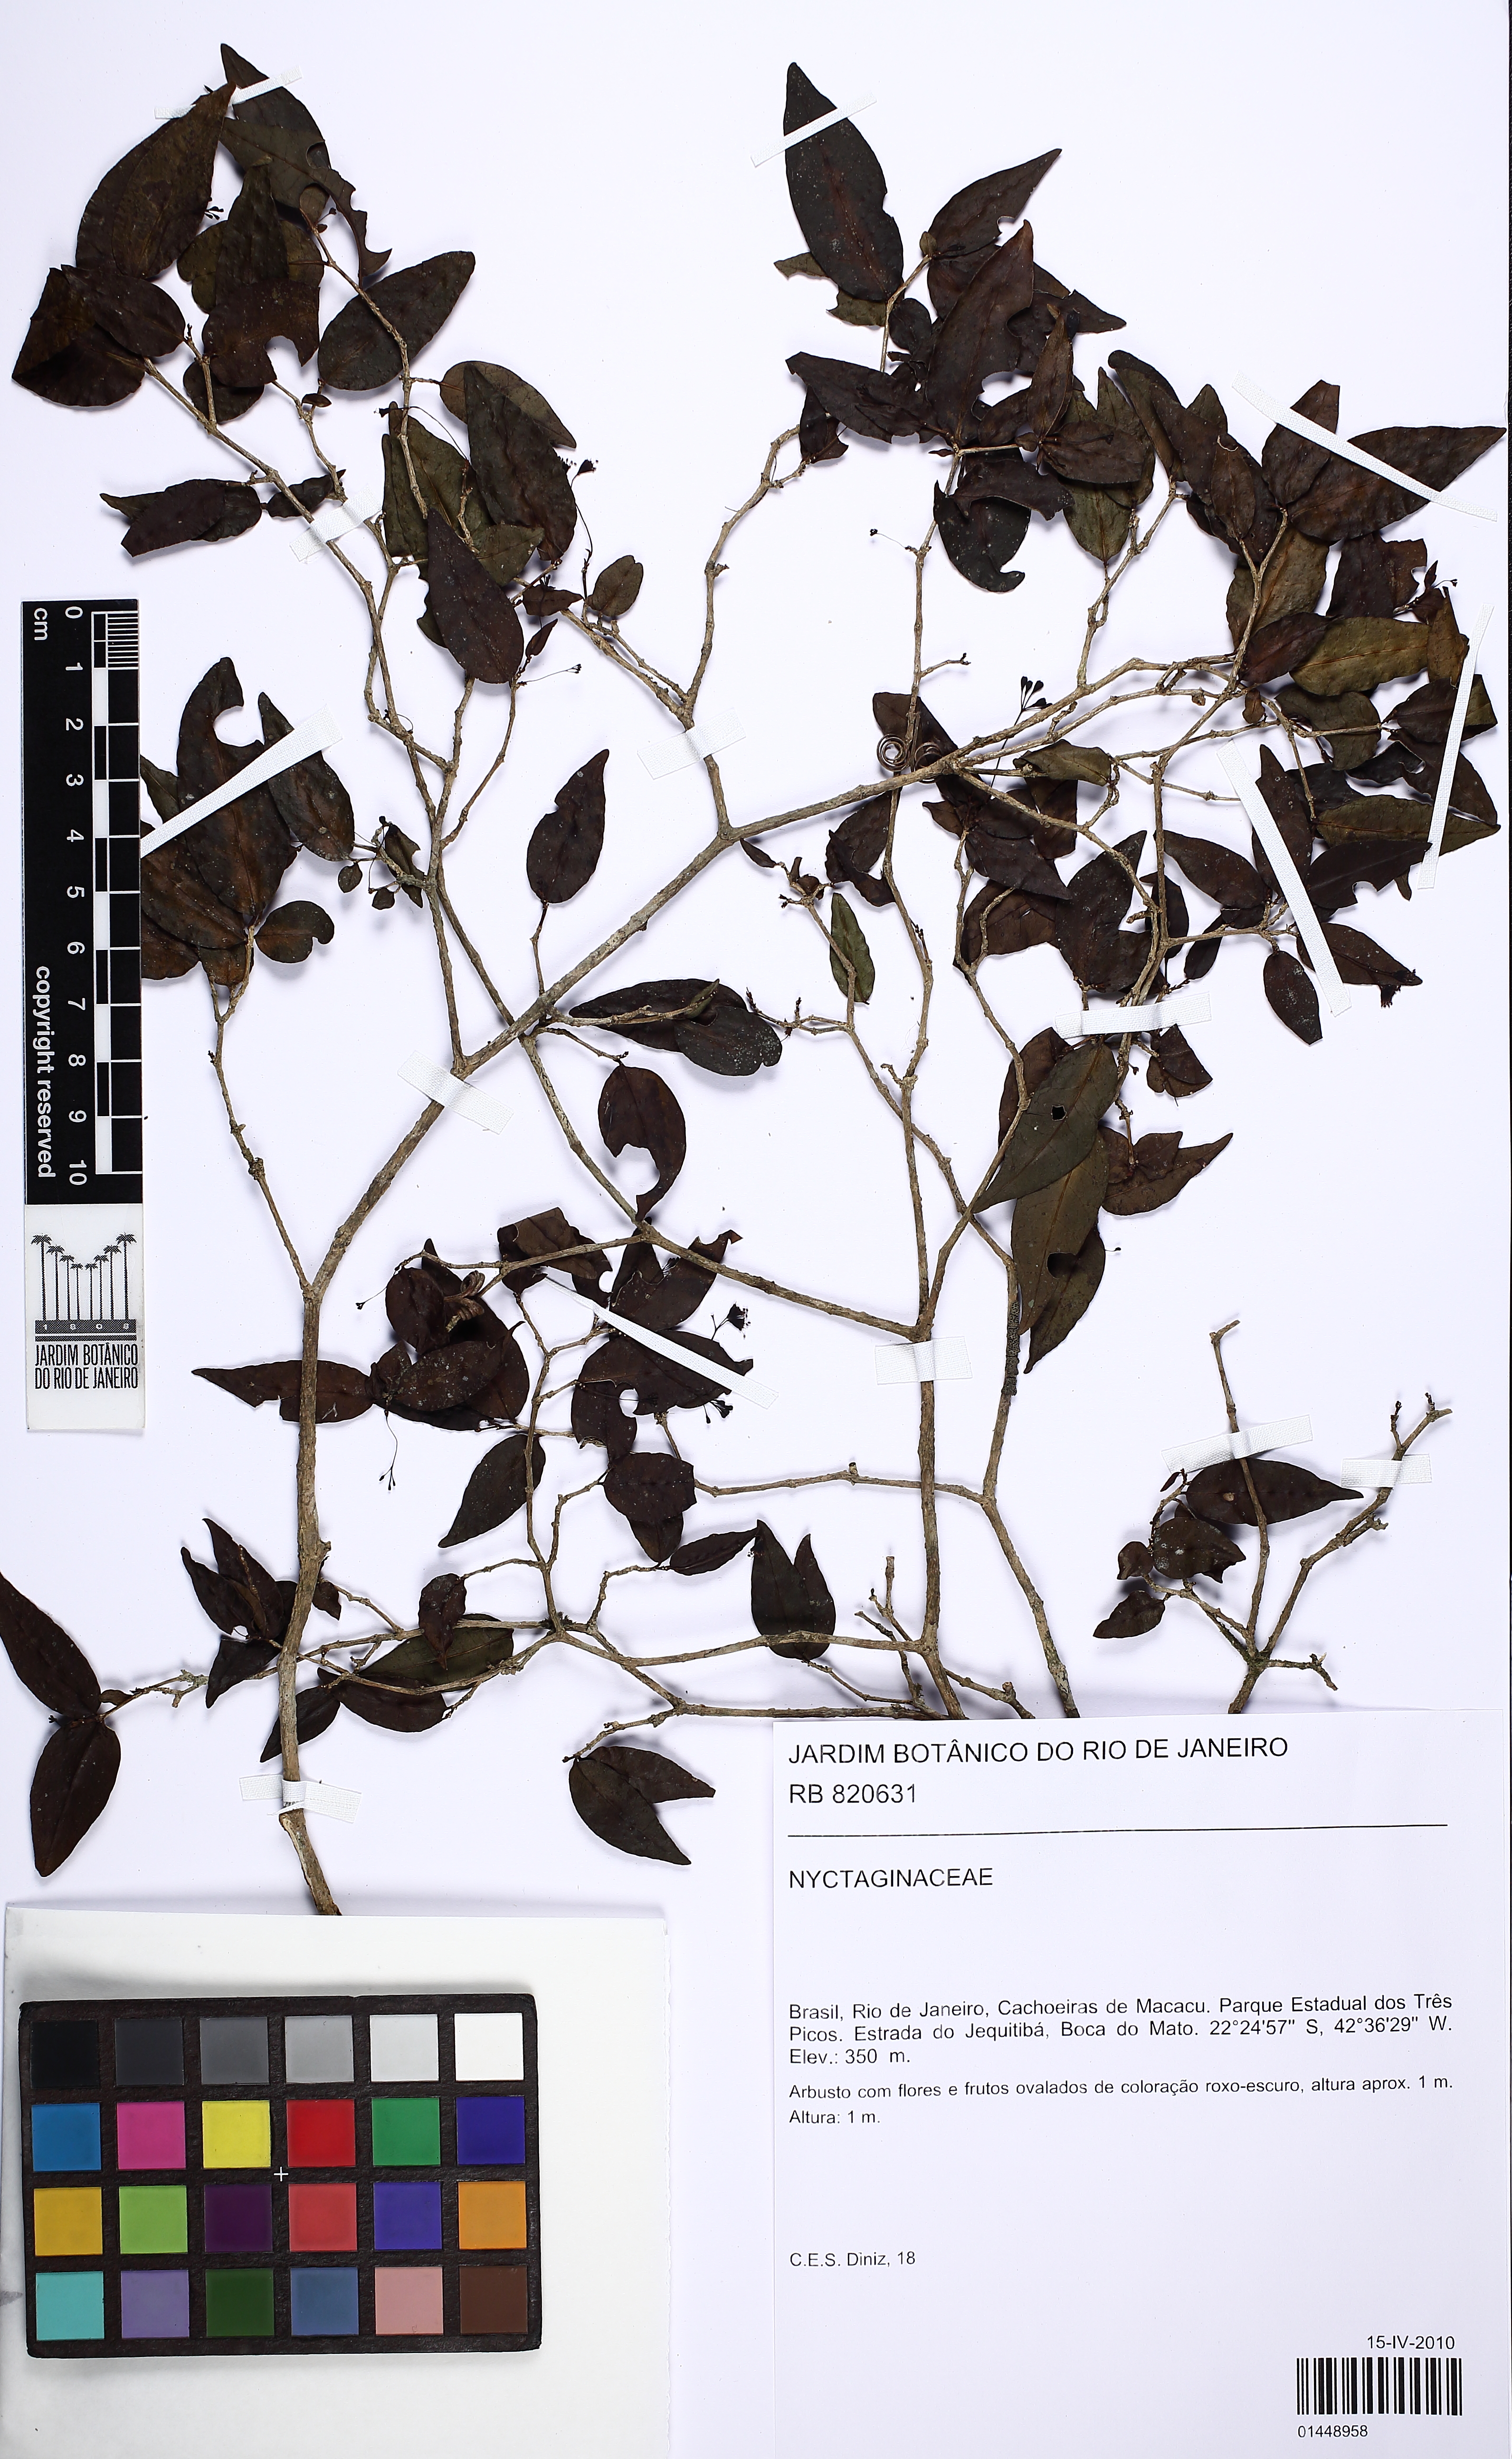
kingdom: Plantae
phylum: Tracheophyta
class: Magnoliopsida
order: Caryophyllales
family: Nyctaginaceae
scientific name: Nyctaginaceae
